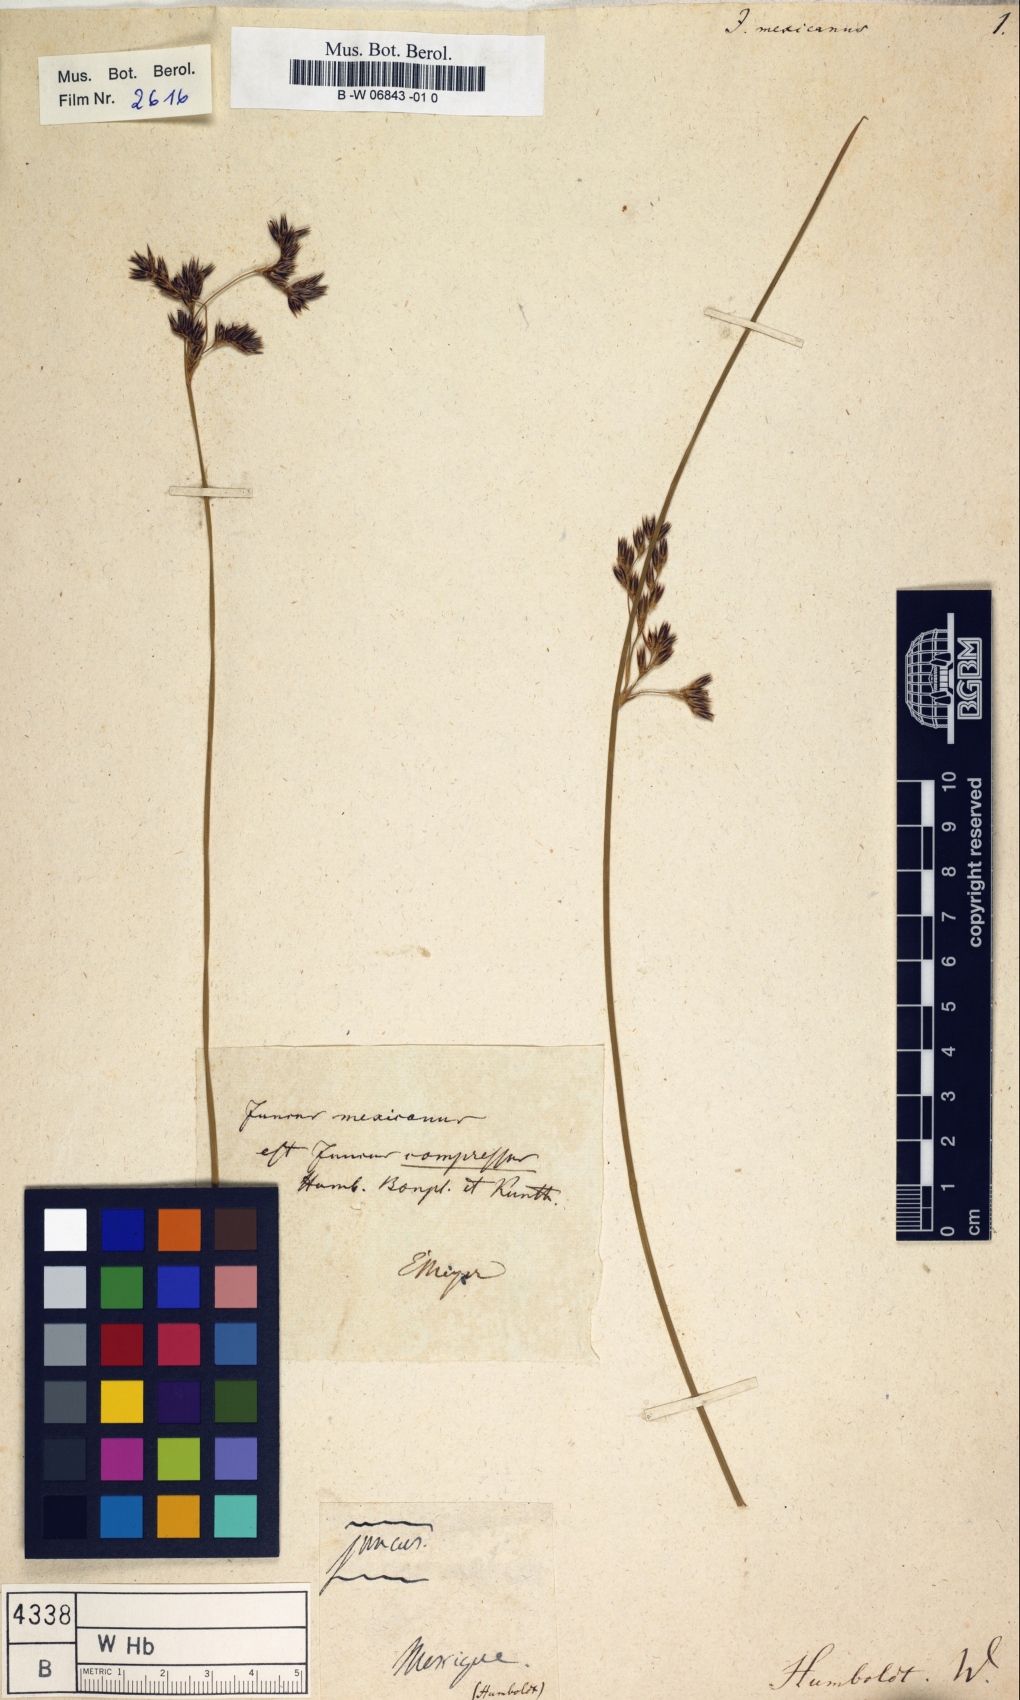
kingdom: Plantae
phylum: Tracheophyta
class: Liliopsida
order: Poales
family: Juncaceae
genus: Juncus
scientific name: Juncus balticus
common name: Baltic rush
